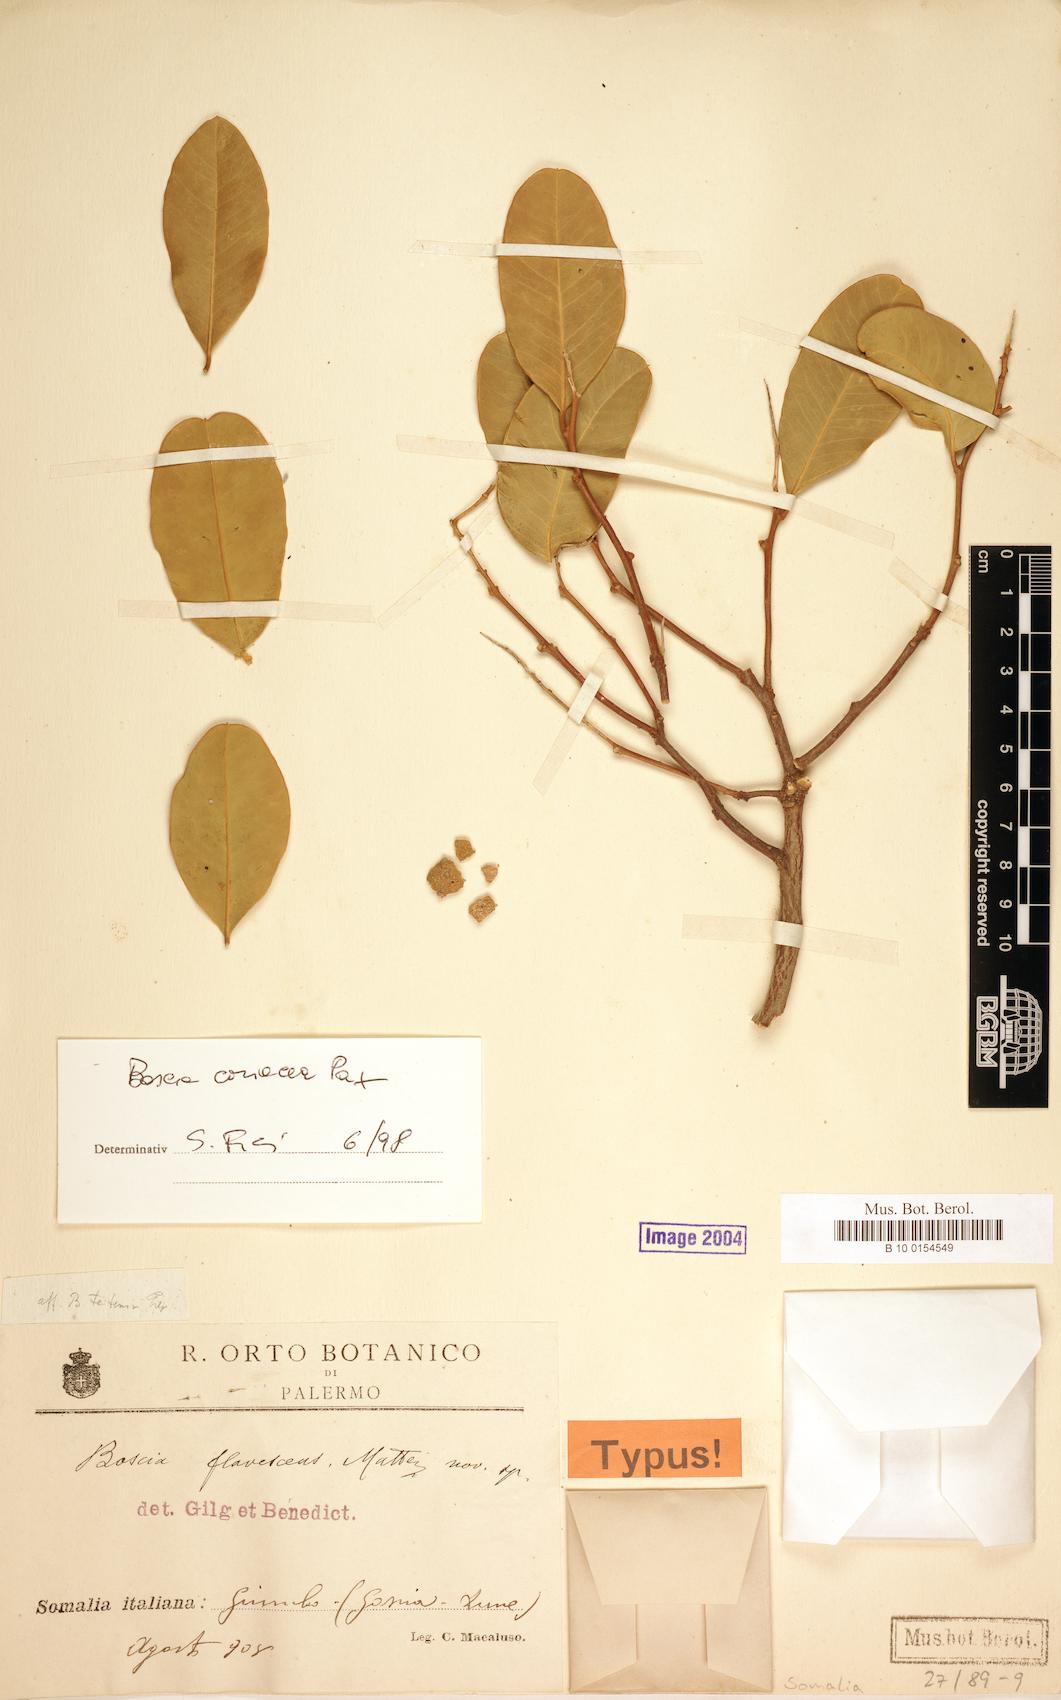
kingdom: Plantae
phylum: Tracheophyta
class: Magnoliopsida
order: Brassicales
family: Capparaceae
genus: Boscia
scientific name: Boscia coriacea
